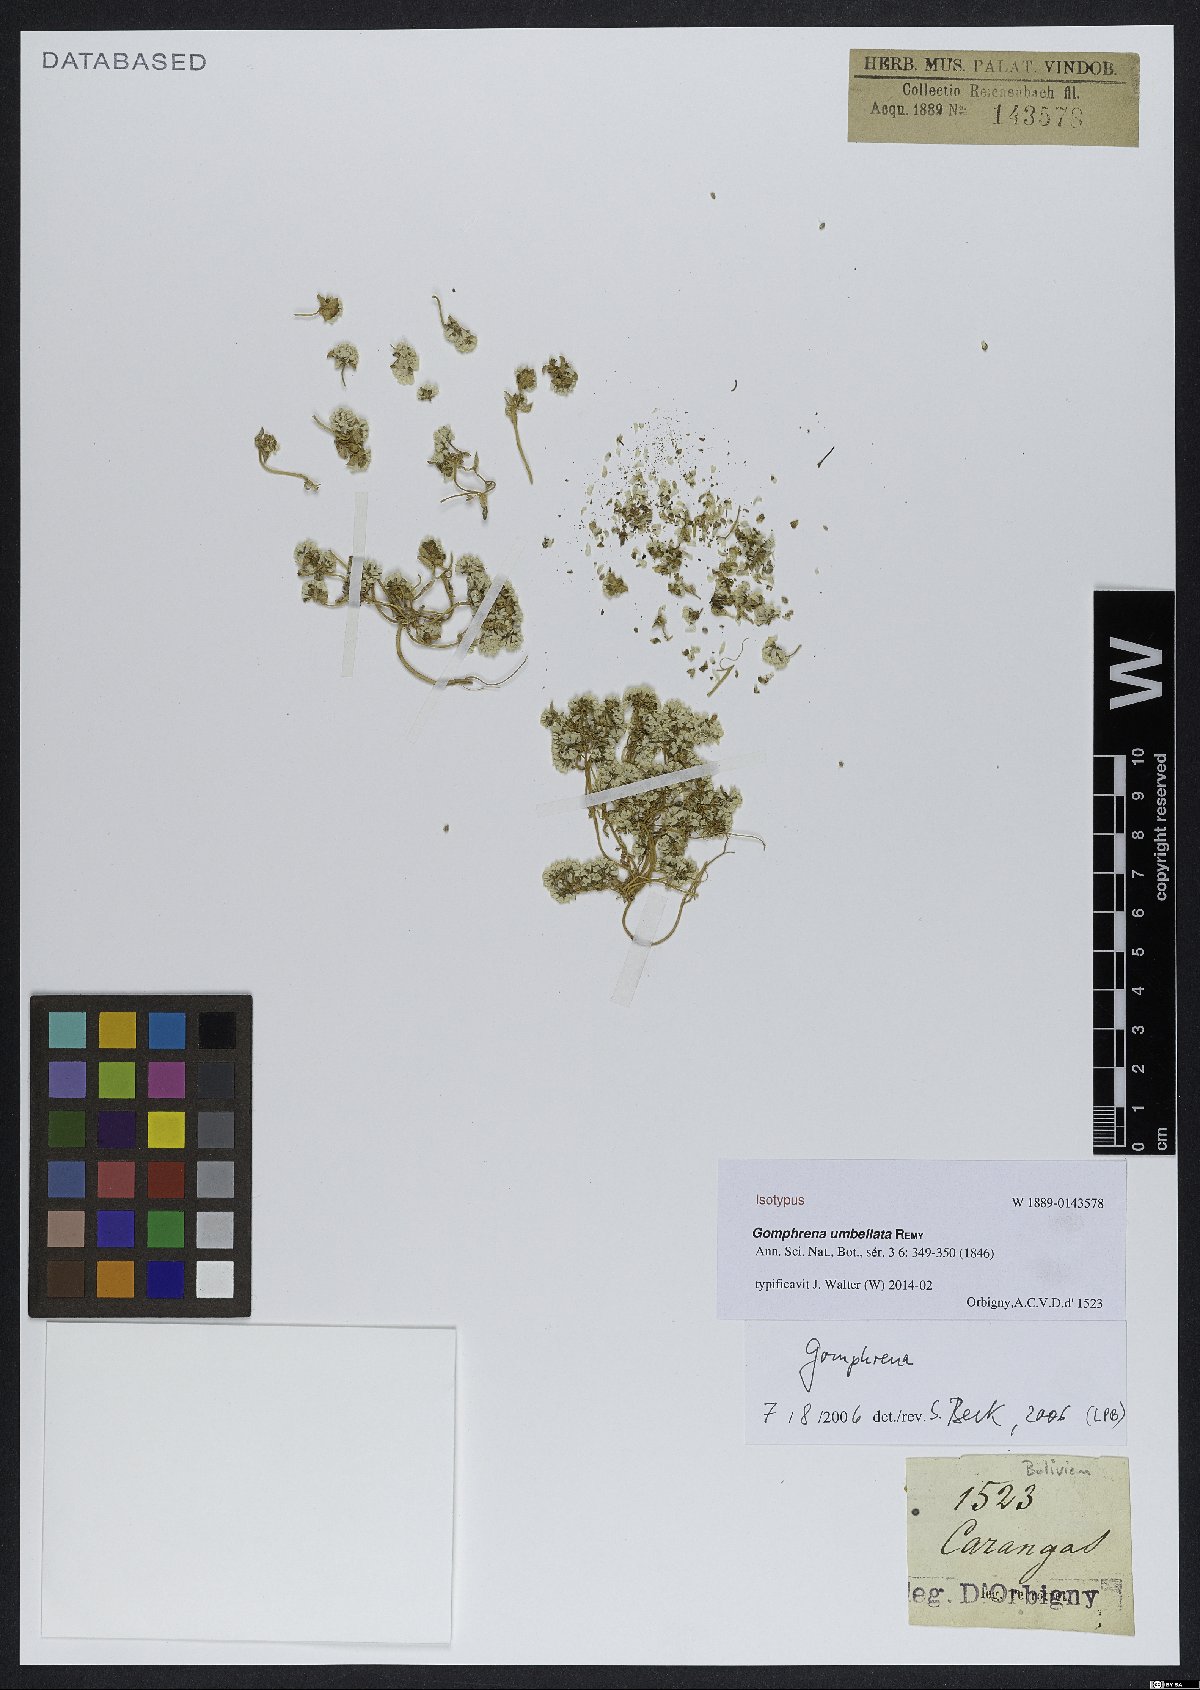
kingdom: Plantae
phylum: Tracheophyta
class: Magnoliopsida
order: Caryophyllales
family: Amaranthaceae
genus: Gomphrena
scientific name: Gomphrena umbellata
